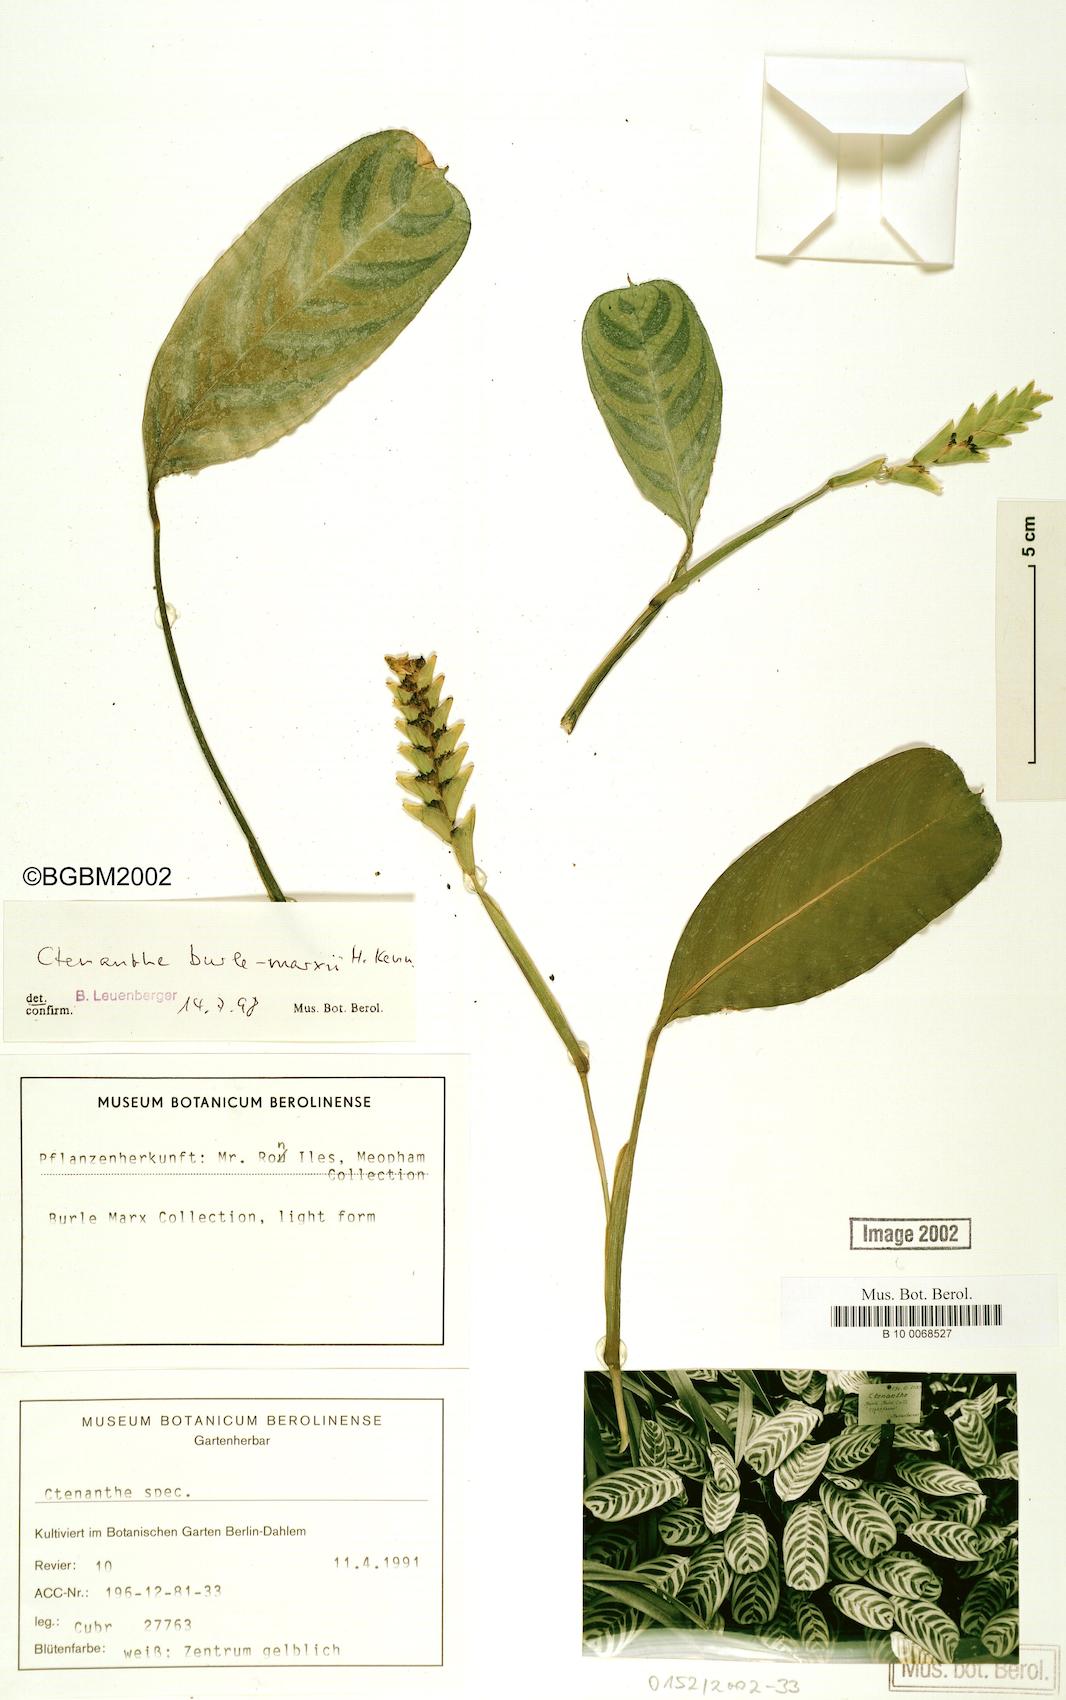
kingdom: Plantae
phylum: Tracheophyta
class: Liliopsida
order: Zingiberales
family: Marantaceae
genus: Ctenanthe
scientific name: Ctenanthe burle-marxii
